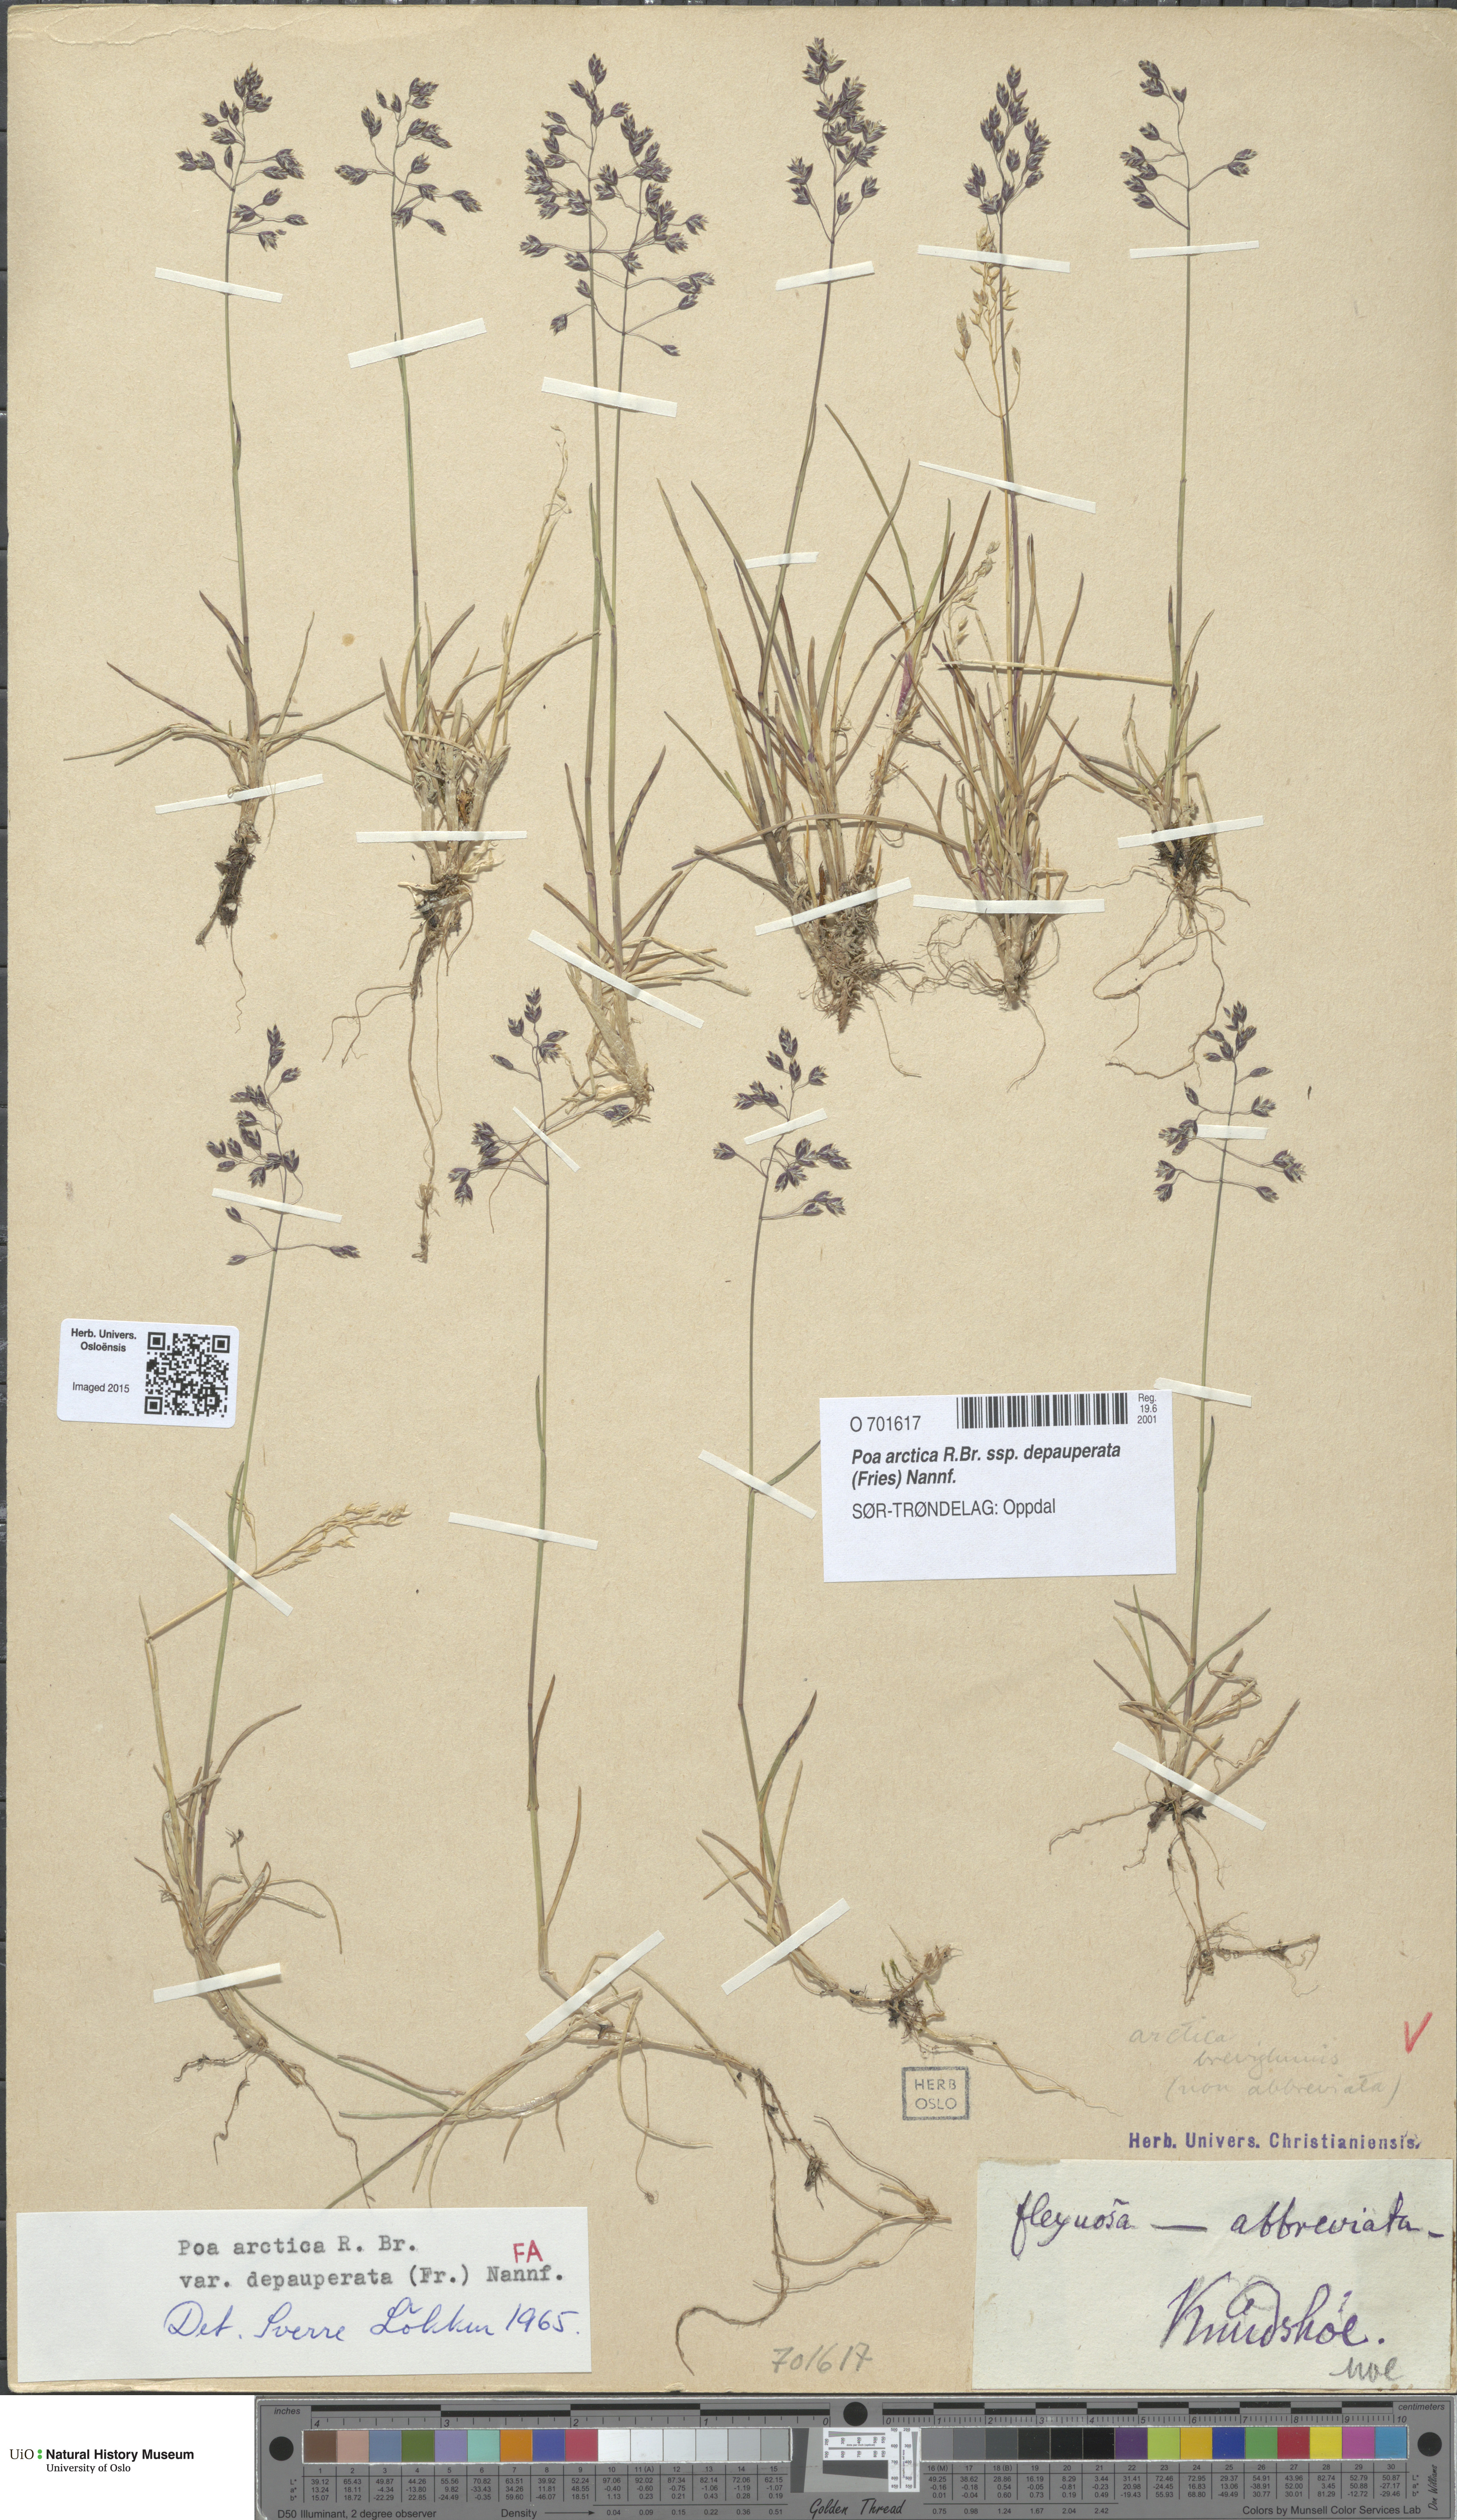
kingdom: Plantae
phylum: Tracheophyta
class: Liliopsida
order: Poales
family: Poaceae
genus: Poa
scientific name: Poa arctica
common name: Arctic bluegrass
